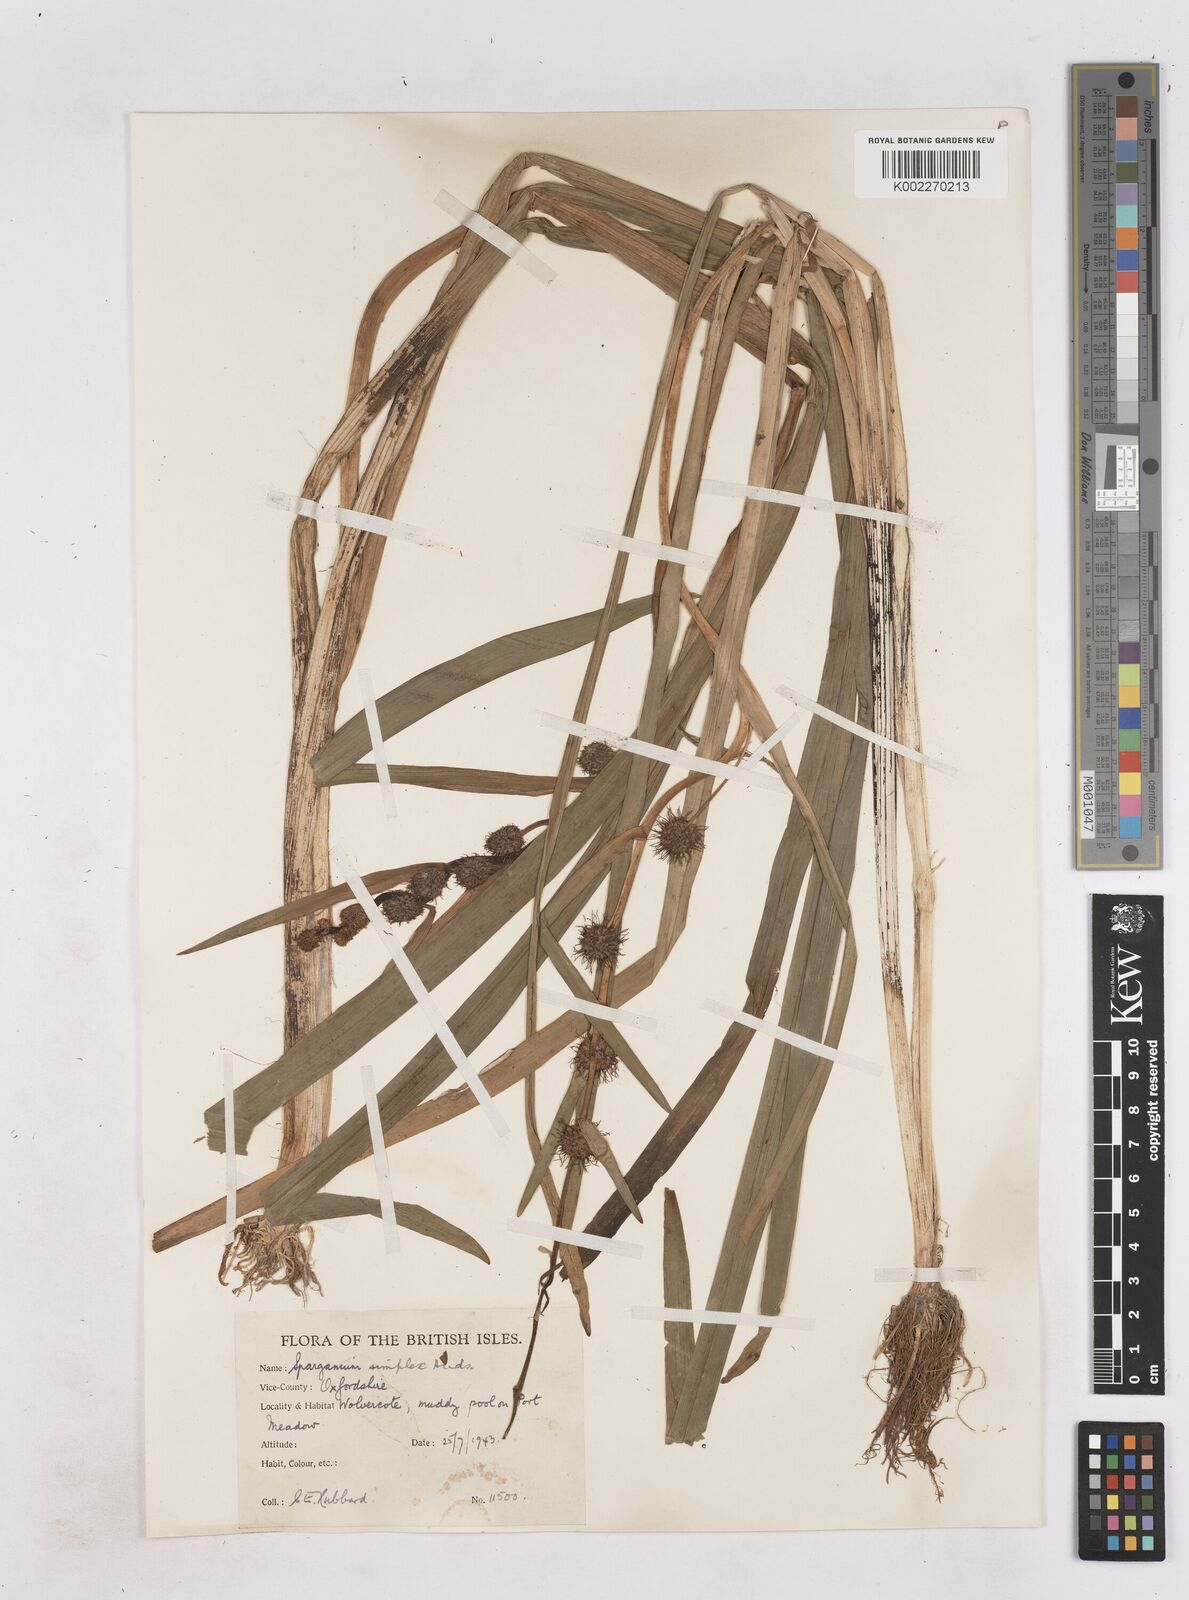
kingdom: Plantae
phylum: Tracheophyta
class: Liliopsida
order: Poales
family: Typhaceae
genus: Sparganium
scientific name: Sparganium emersum
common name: Unbranched bur-reed
